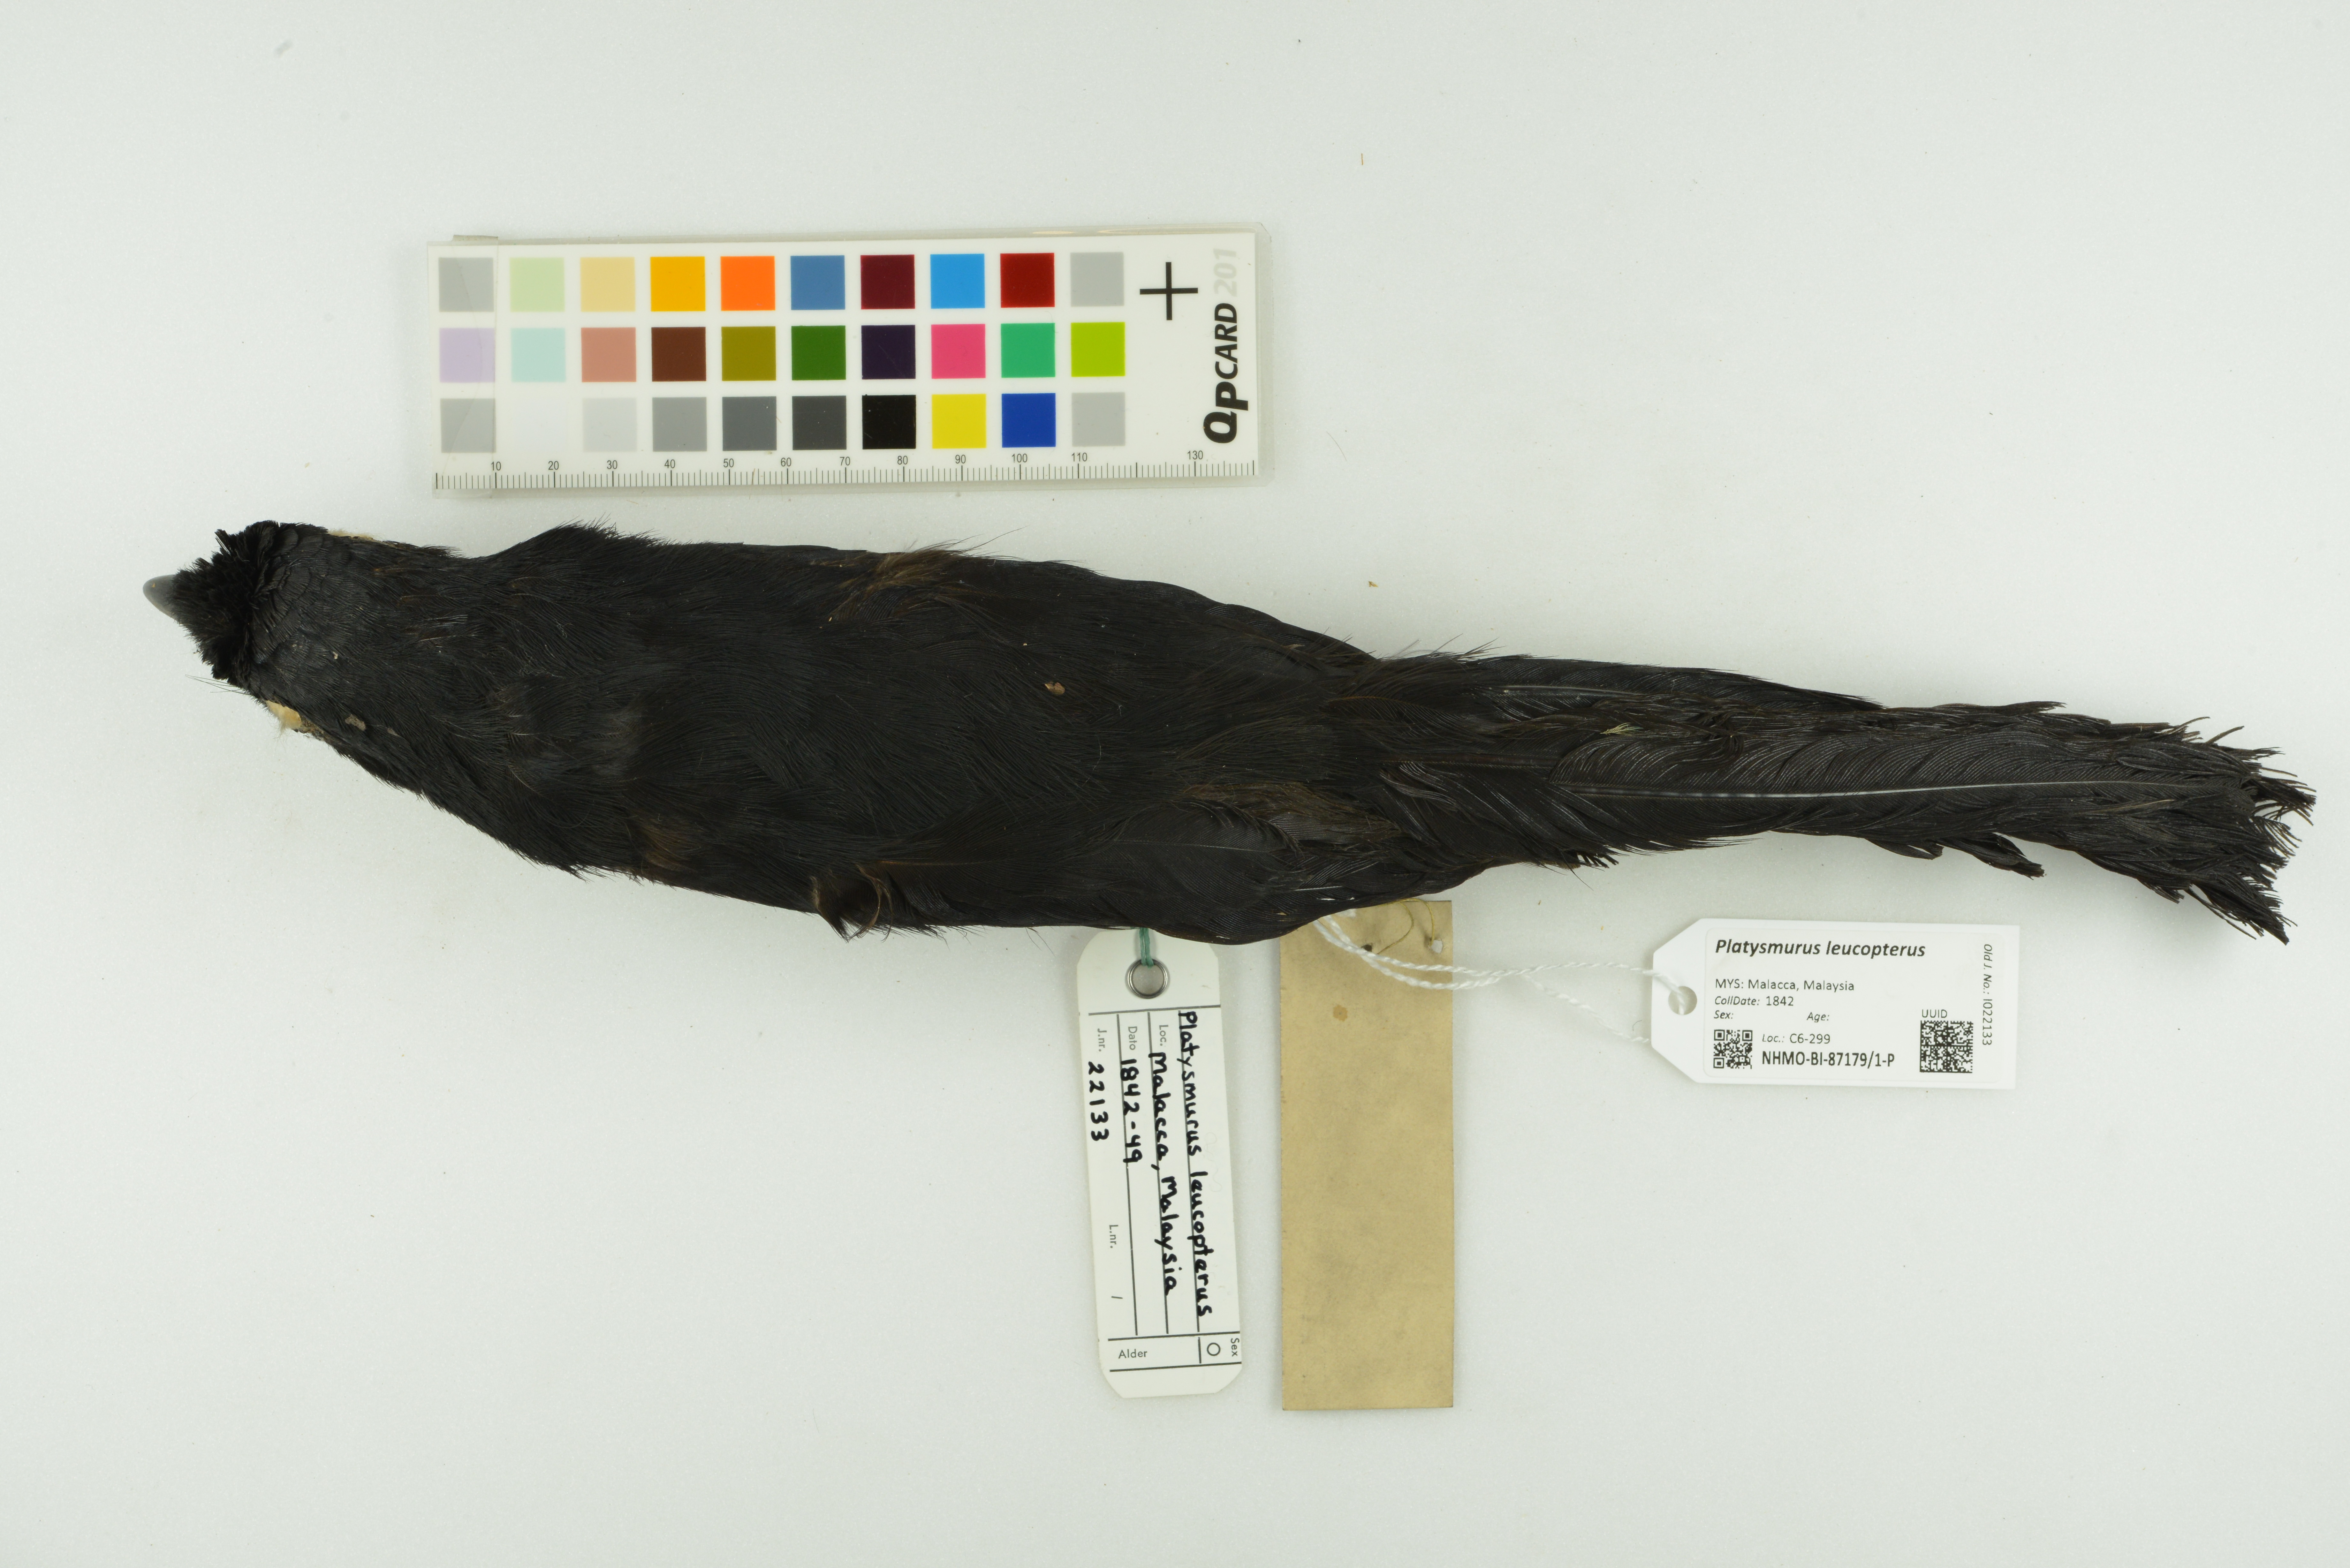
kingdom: Animalia
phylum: Chordata
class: Aves
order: Passeriformes
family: Corvidae
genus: Platysmurus
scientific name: Platysmurus leucopterus
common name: Black magpie
